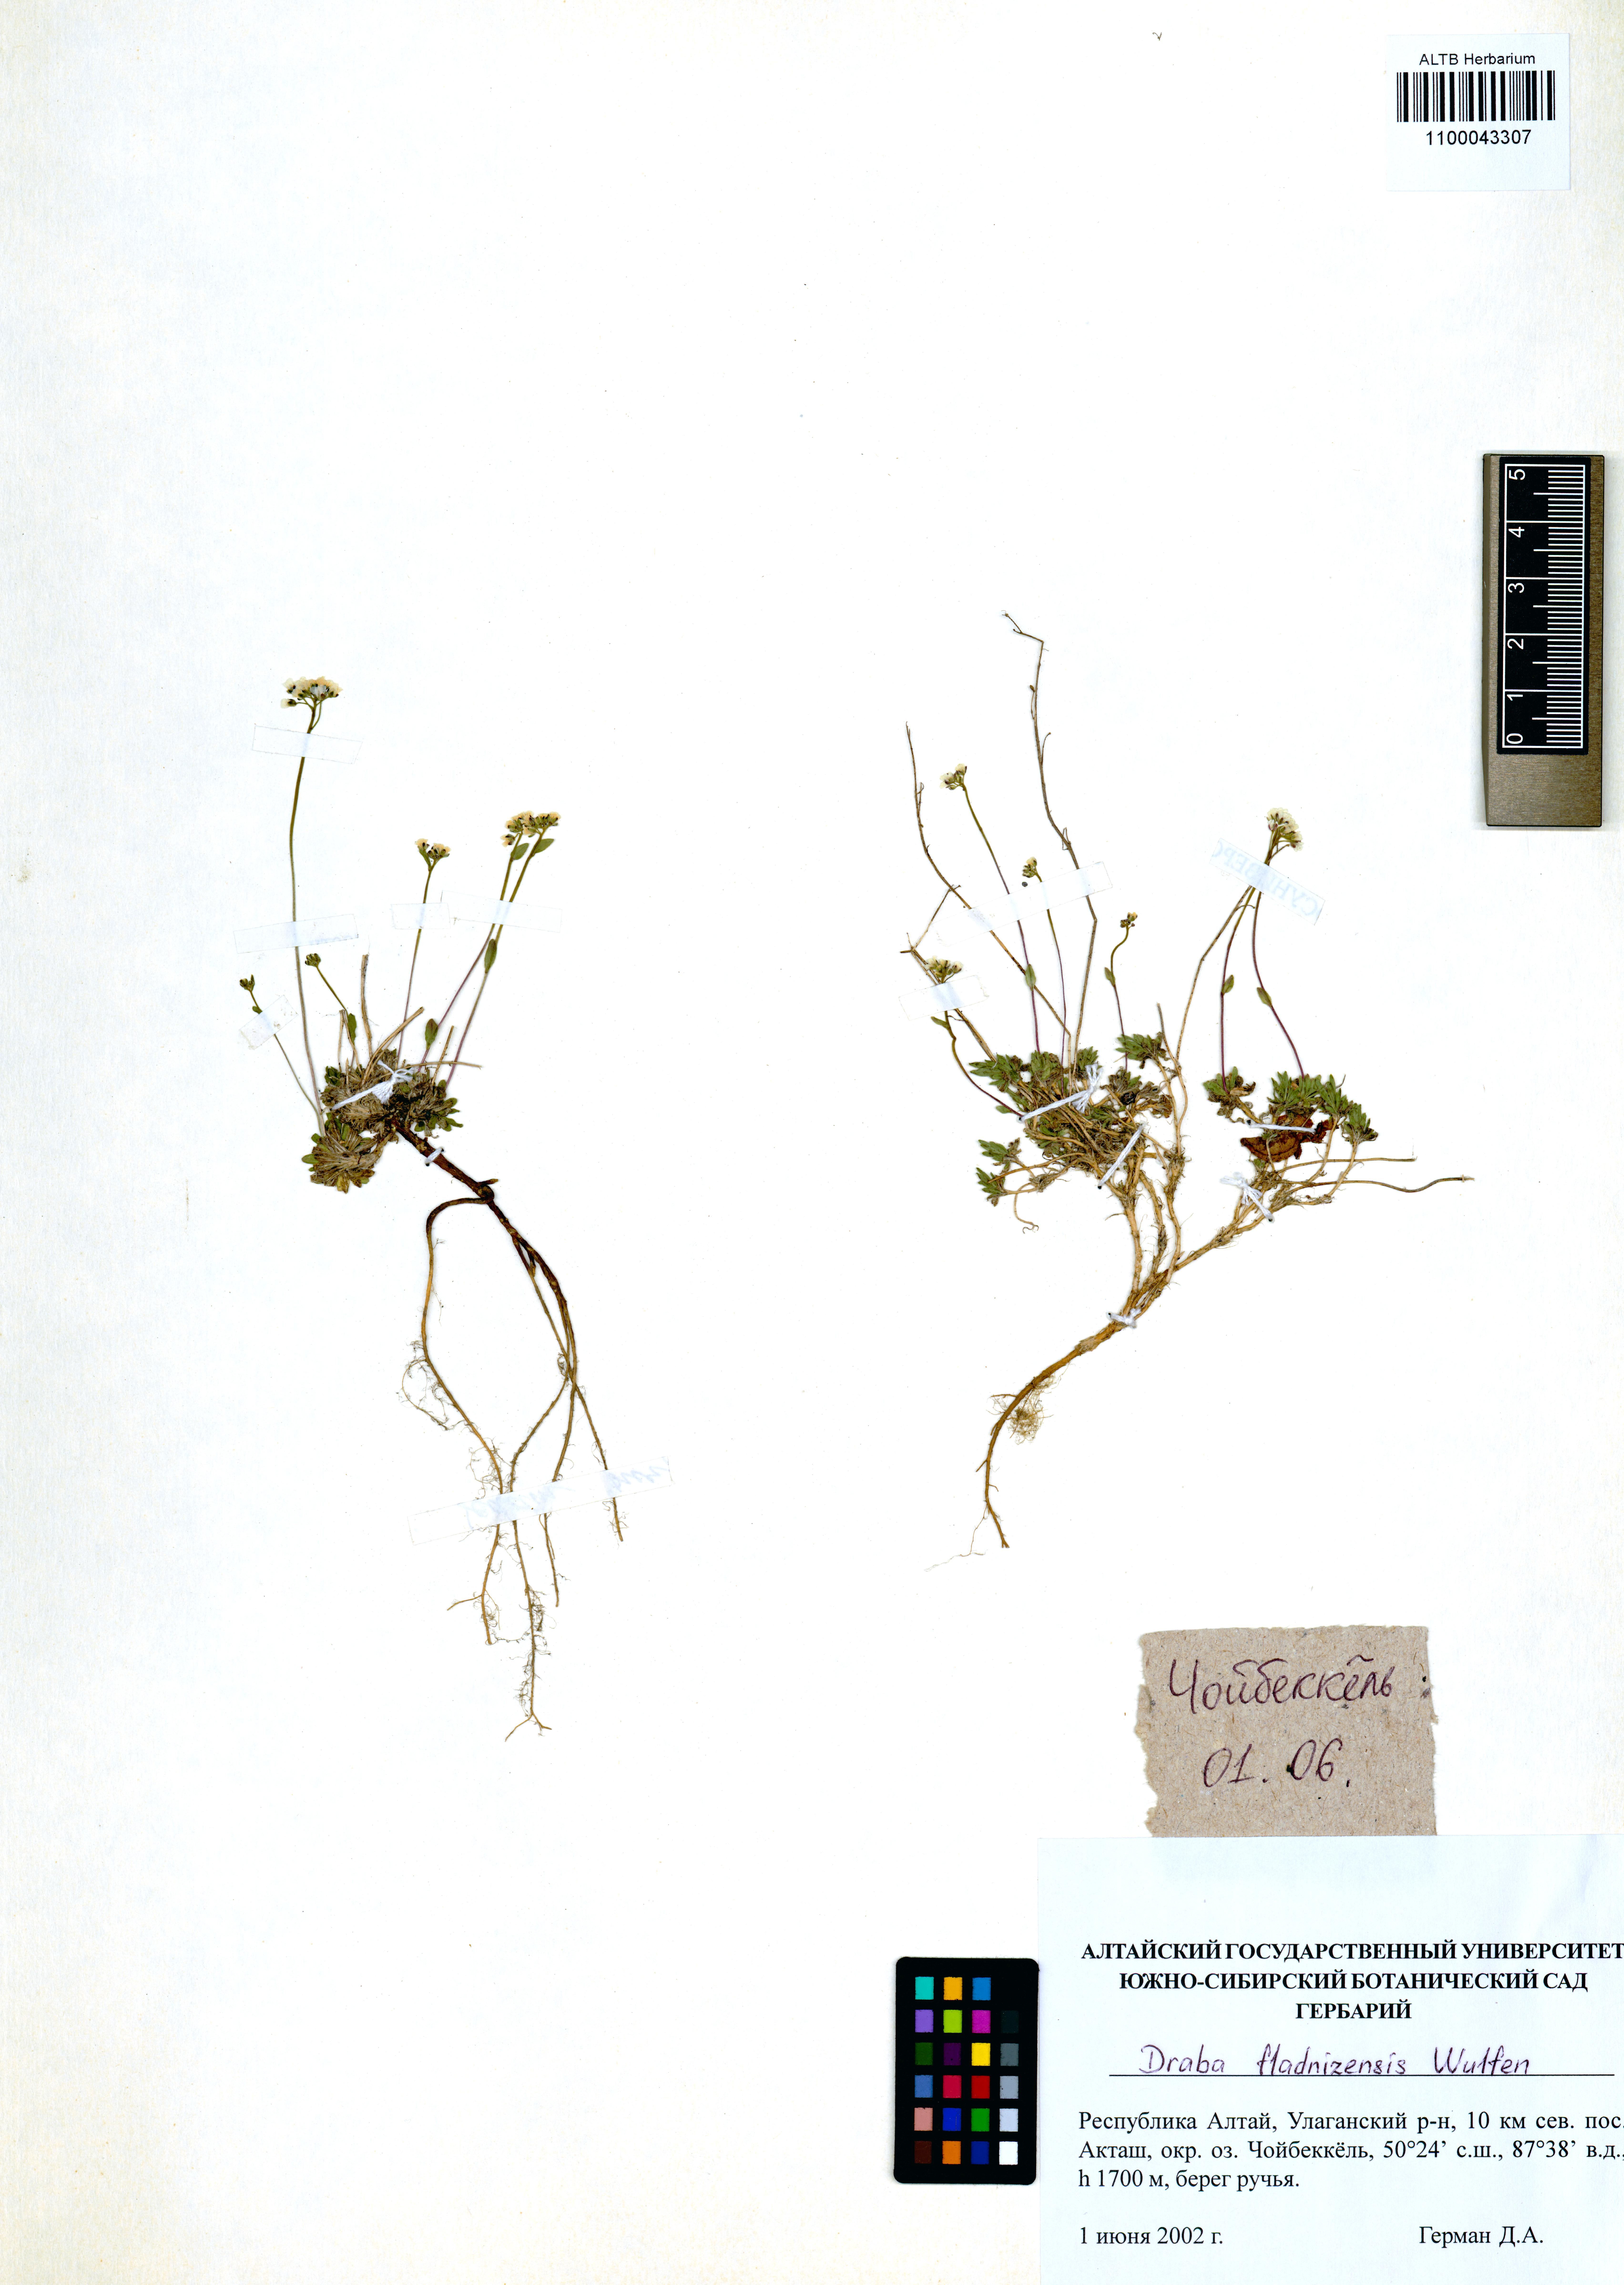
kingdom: Plantae
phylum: Tracheophyta
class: Magnoliopsida
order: Brassicales
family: Brassicaceae
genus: Draba
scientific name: Draba fladnizensis
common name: Austrian draba
